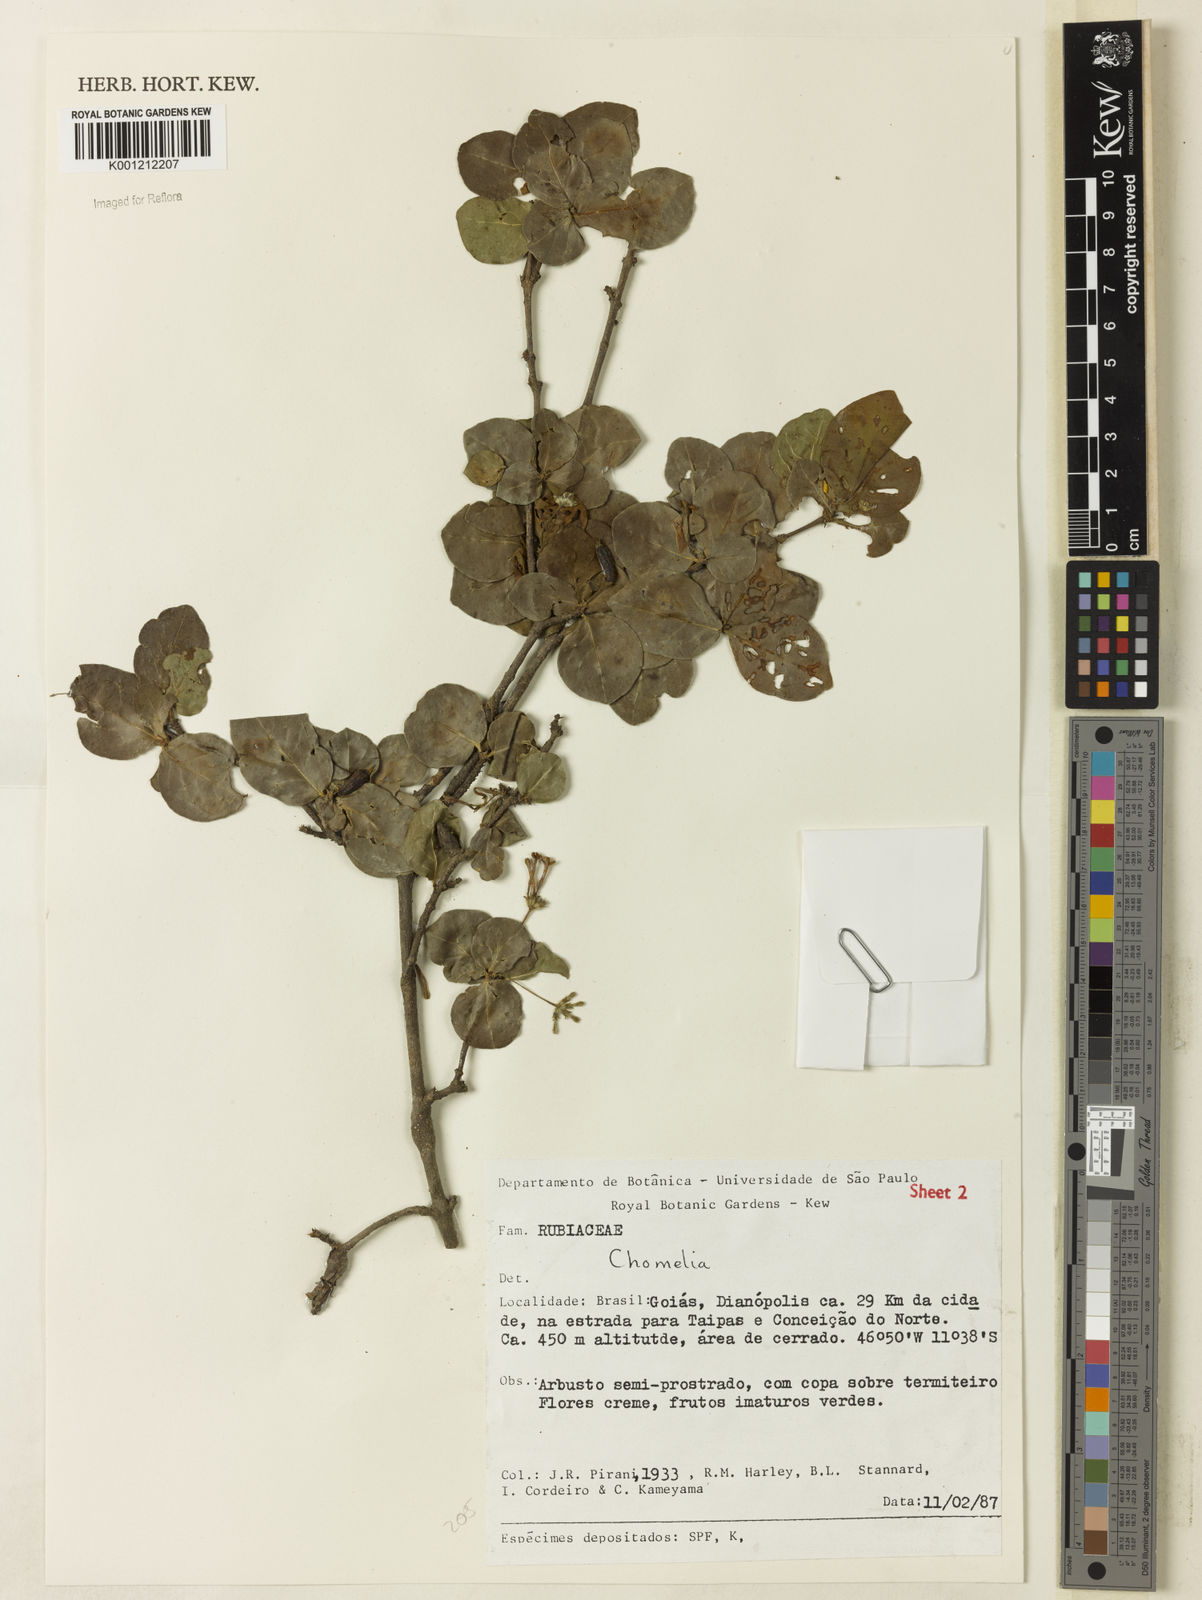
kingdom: Plantae
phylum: Tracheophyta
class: Magnoliopsida
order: Gentianales
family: Rubiaceae
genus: Chomelia
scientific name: Chomelia
